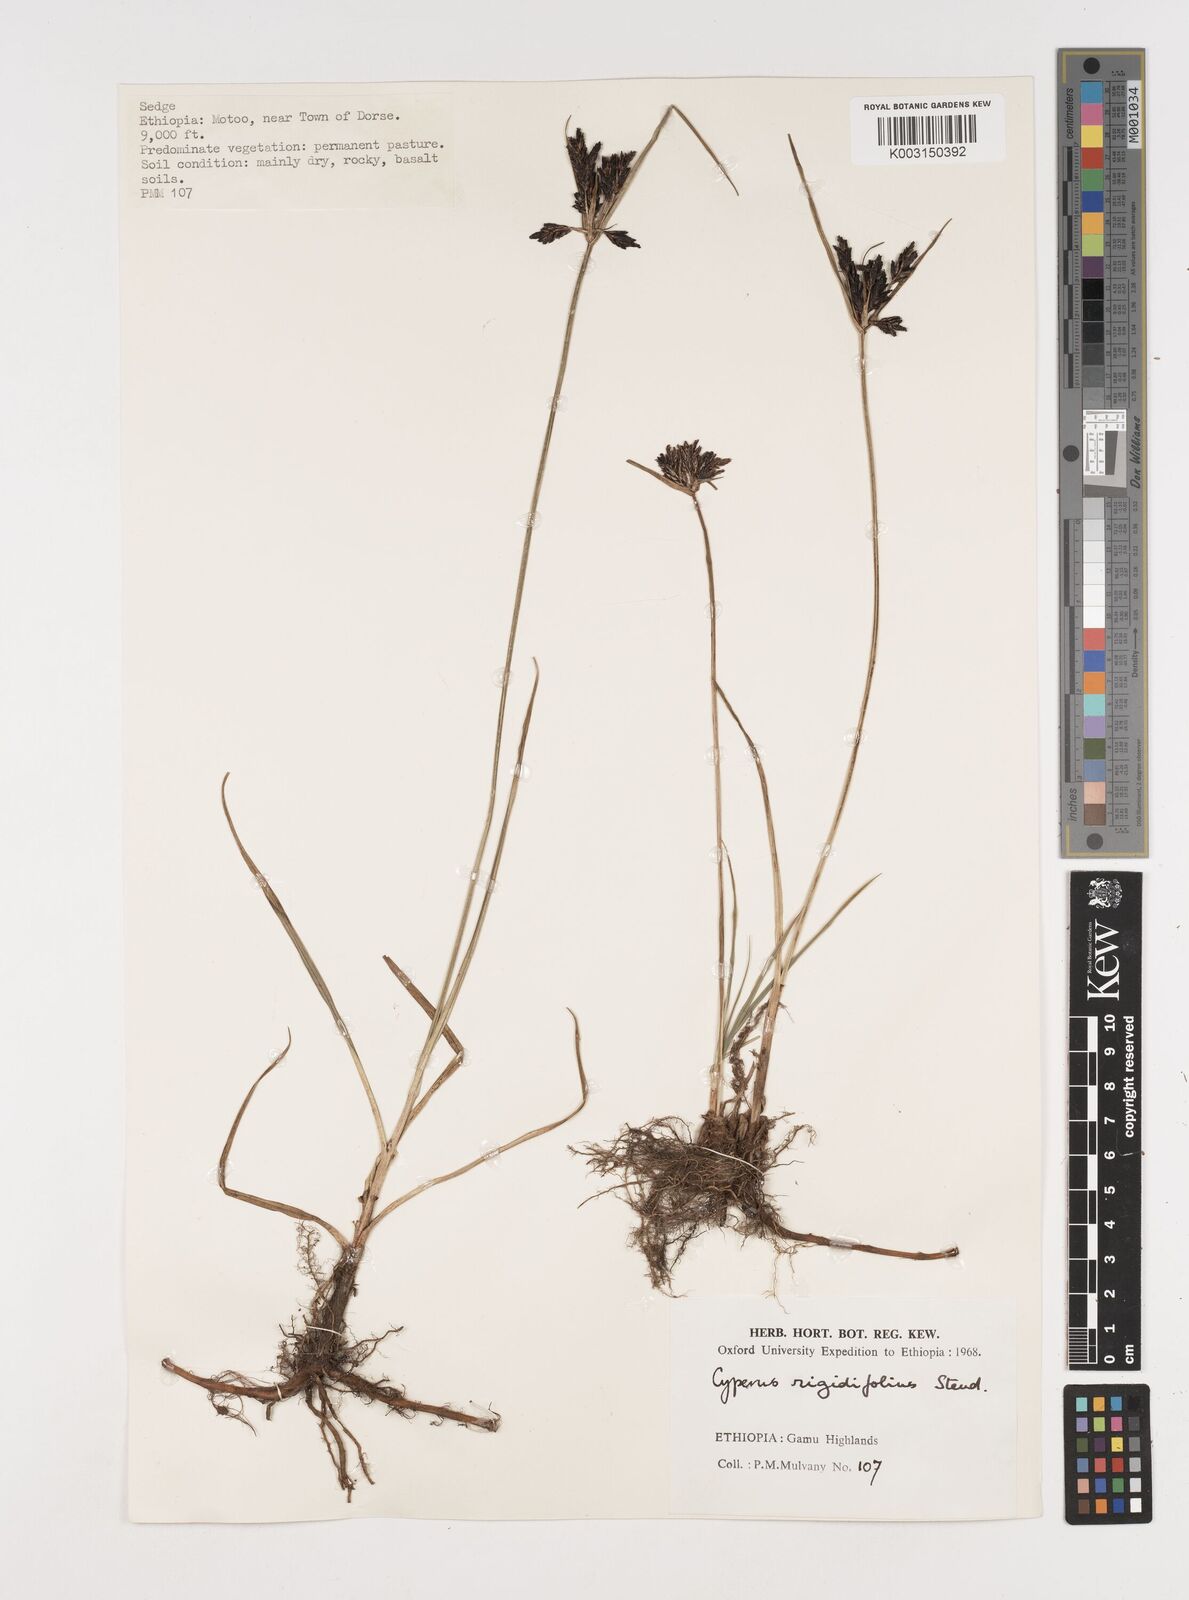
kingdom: Plantae
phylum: Tracheophyta
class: Liliopsida
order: Poales
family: Cyperaceae
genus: Cyperus
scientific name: Cyperus rigidifolius
